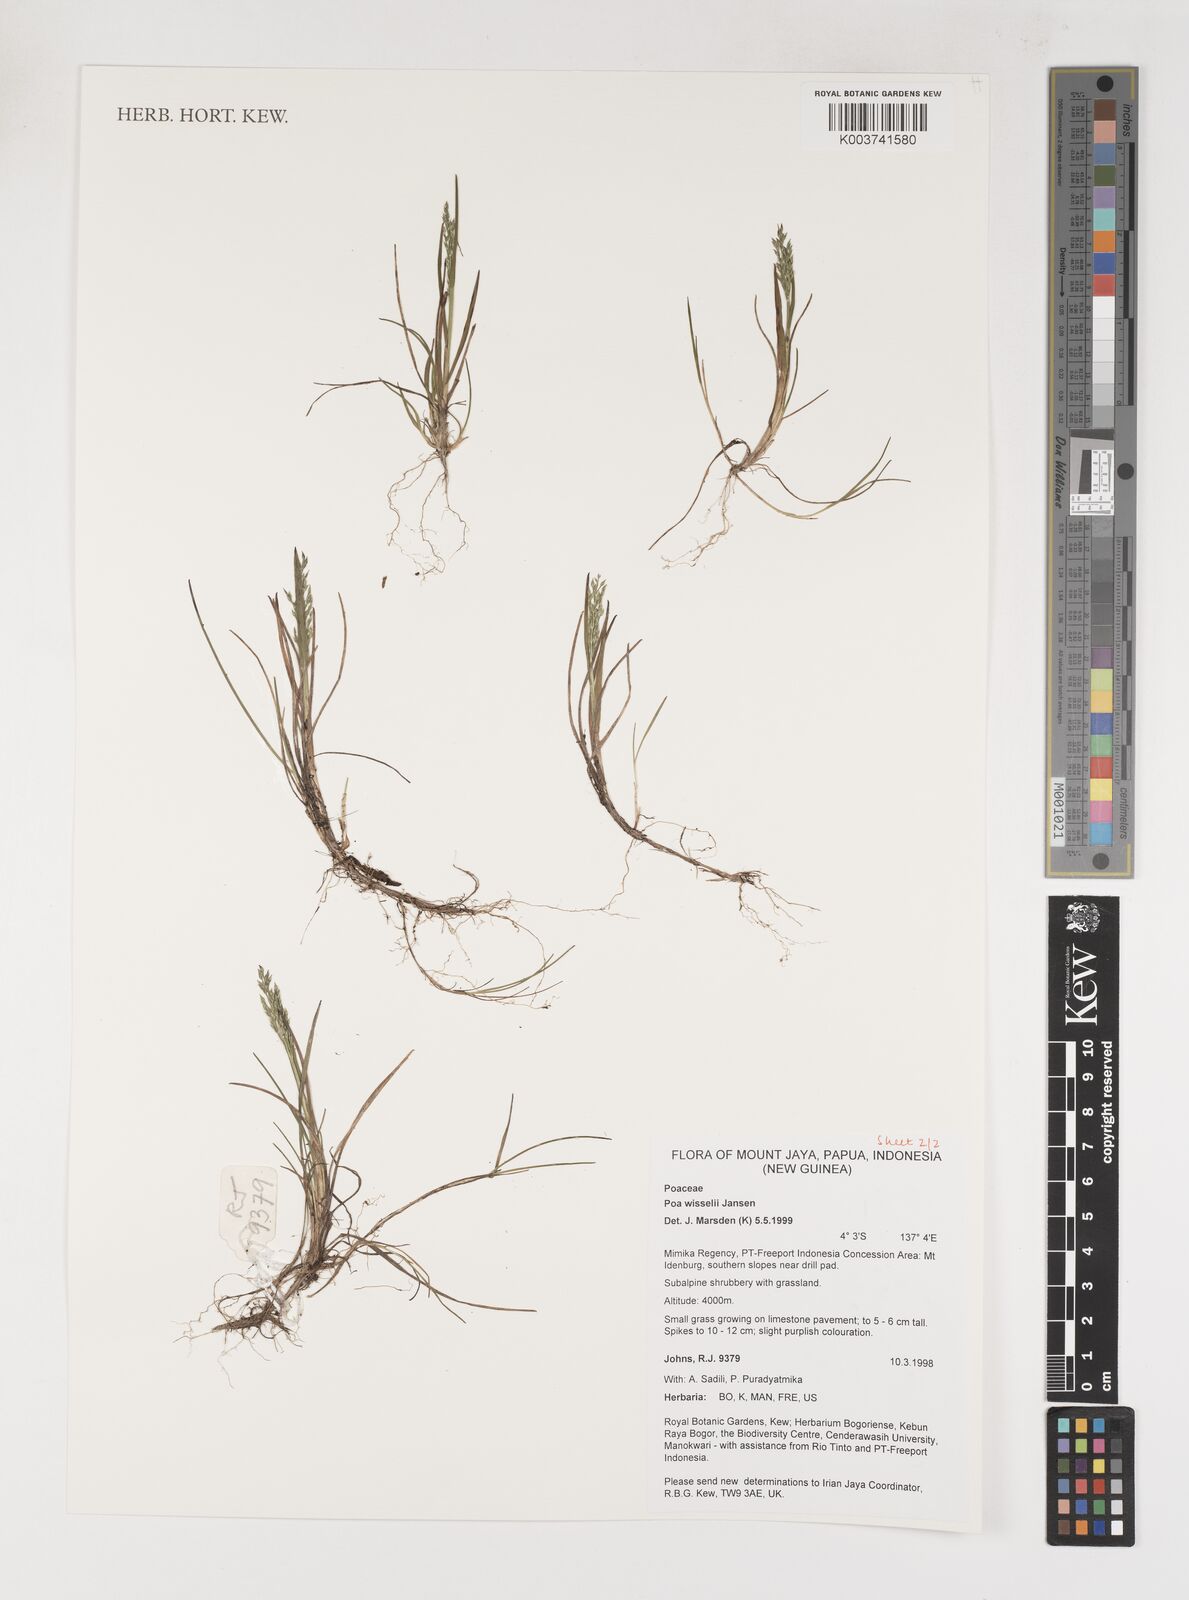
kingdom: Plantae
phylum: Tracheophyta
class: Liliopsida
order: Poales
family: Poaceae
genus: Poa
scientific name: Poa wisselii
